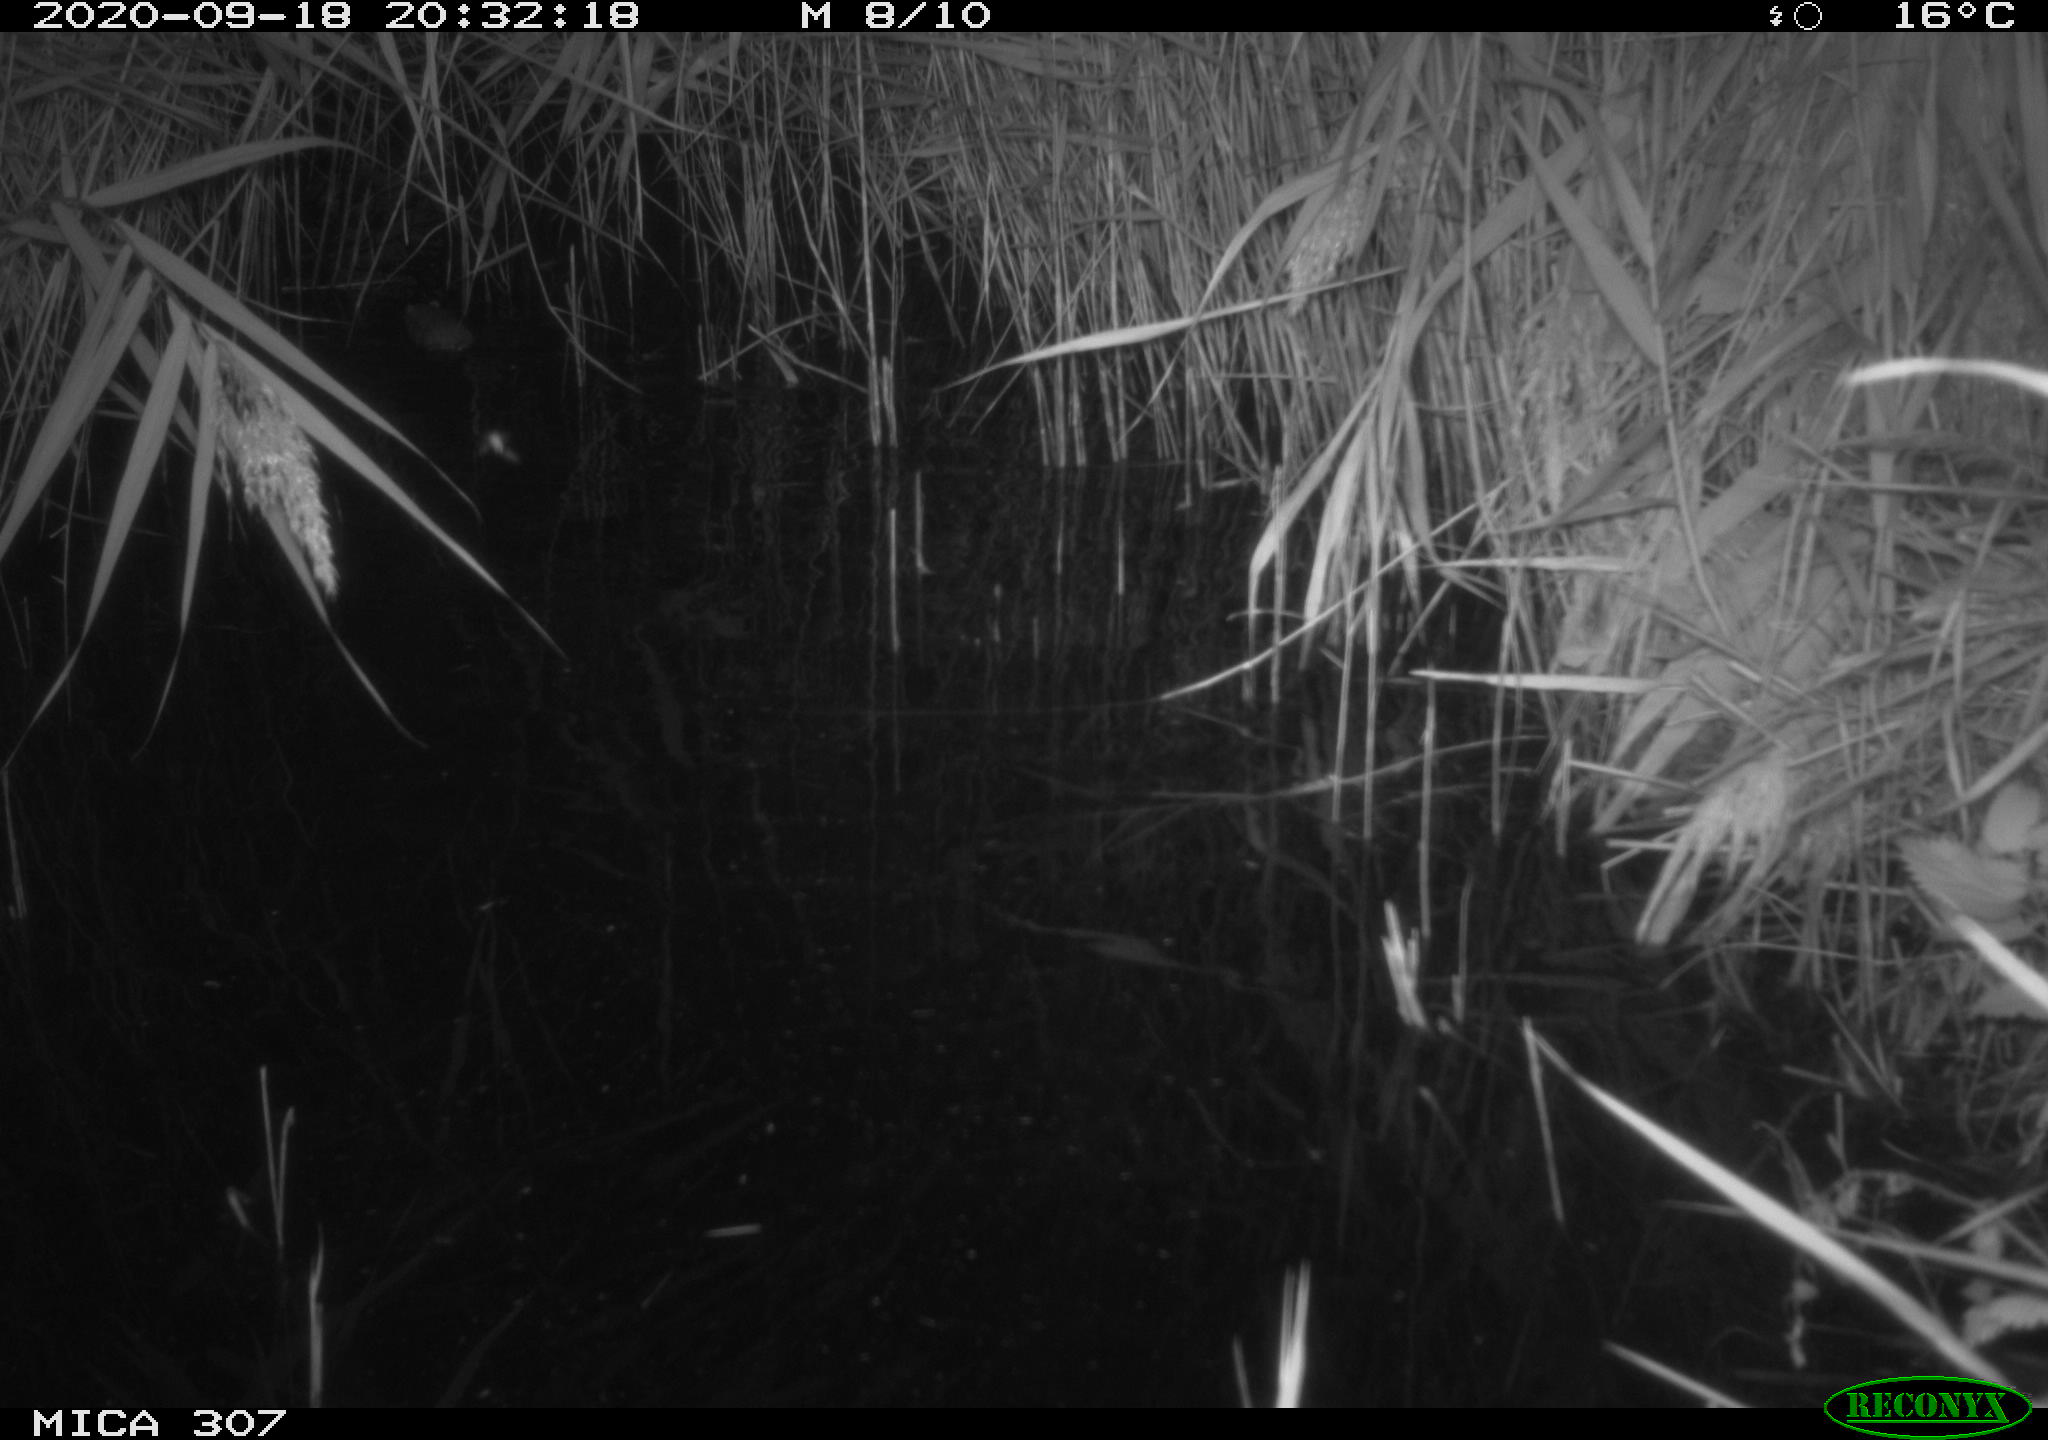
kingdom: Animalia
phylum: Chordata
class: Mammalia
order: Rodentia
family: Cricetidae
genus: Ondatra
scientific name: Ondatra zibethicus
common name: Muskrat
